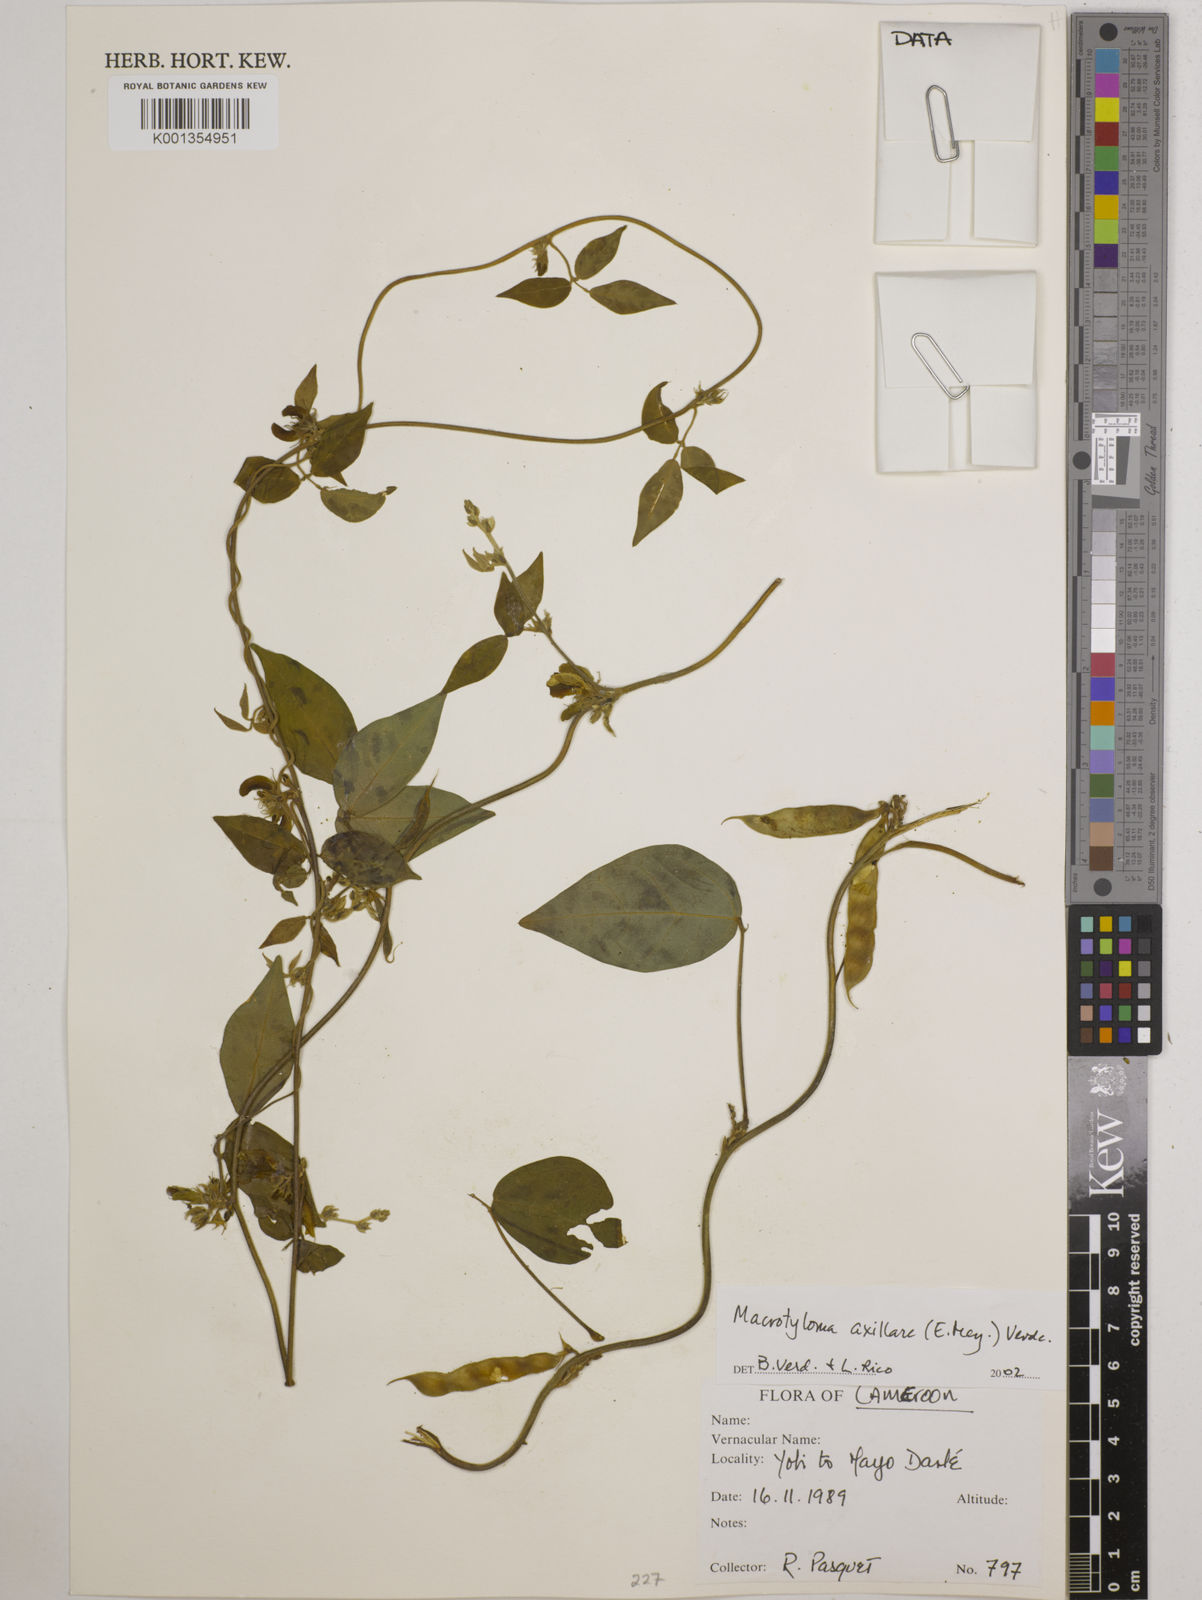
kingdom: Plantae
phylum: Tracheophyta
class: Magnoliopsida
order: Fabales
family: Fabaceae
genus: Macrotyloma
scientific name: Macrotyloma axillare
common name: Perennial horsegram
